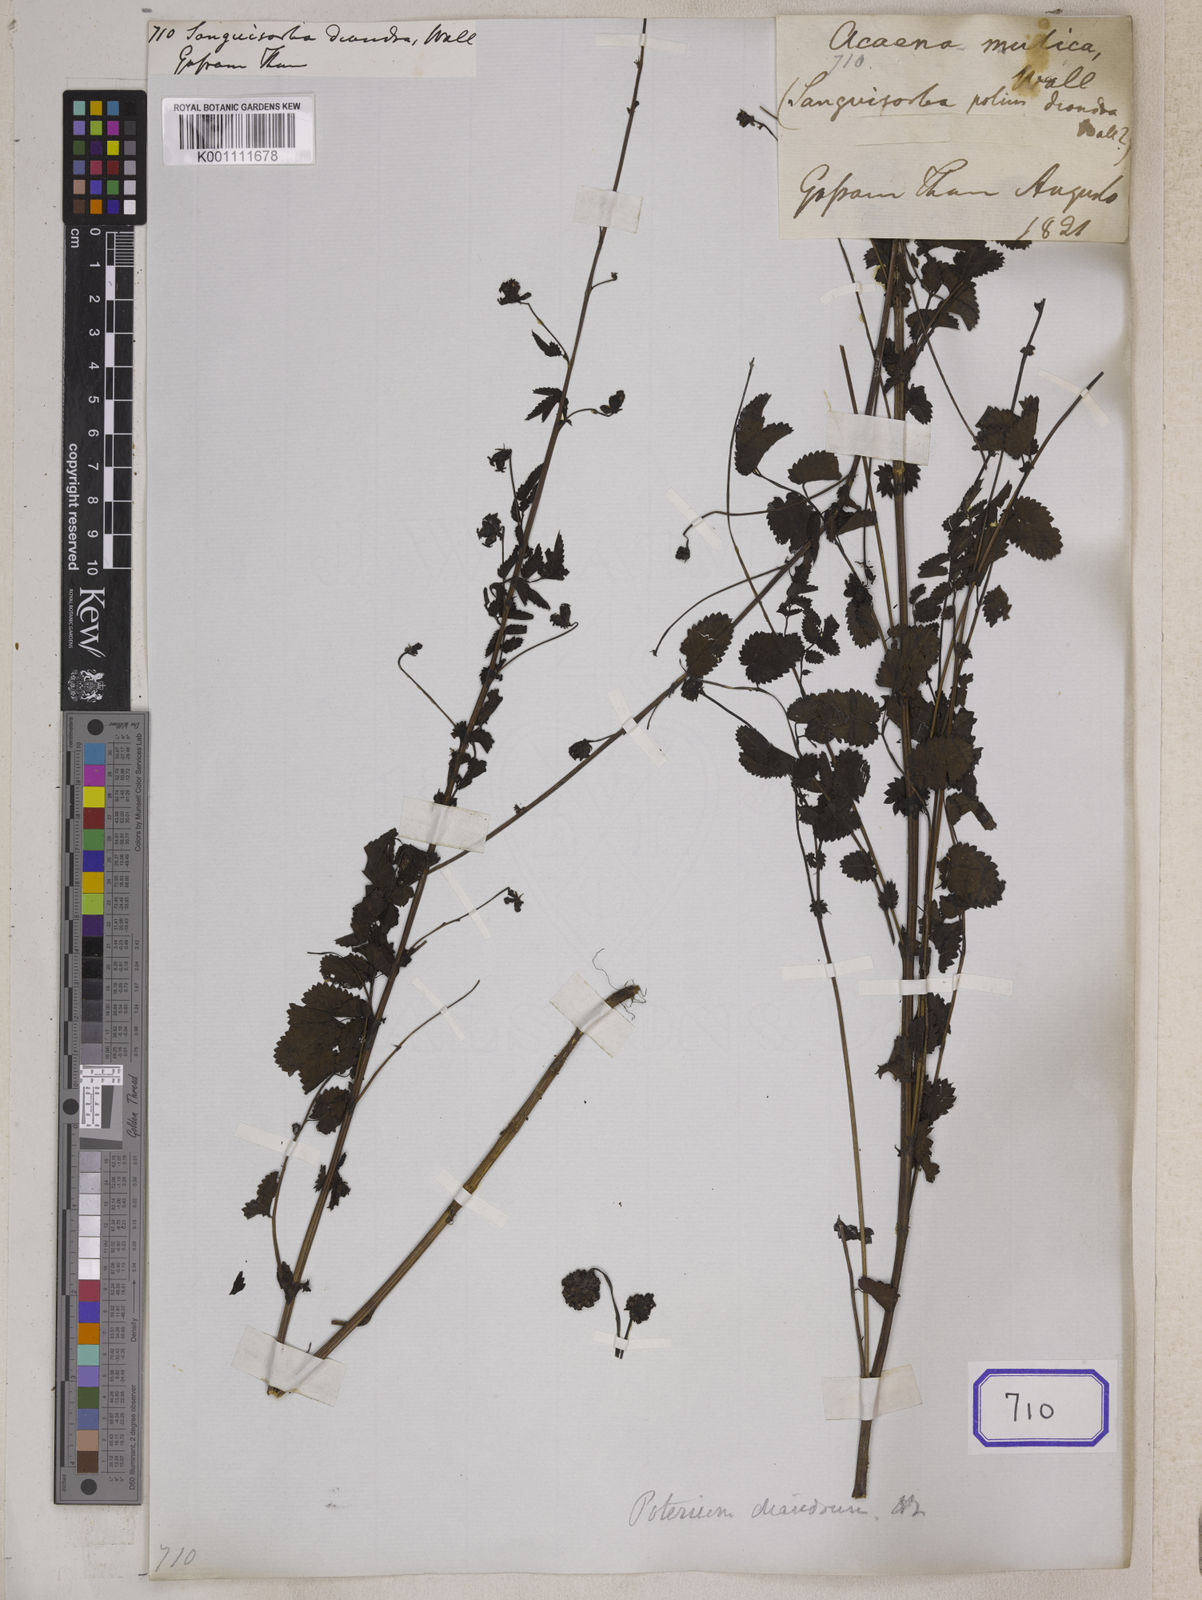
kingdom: Plantae
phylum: Tracheophyta
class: Magnoliopsida
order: Rosales
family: Rosaceae
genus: Sanguisorba
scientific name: Sanguisorba diandra
